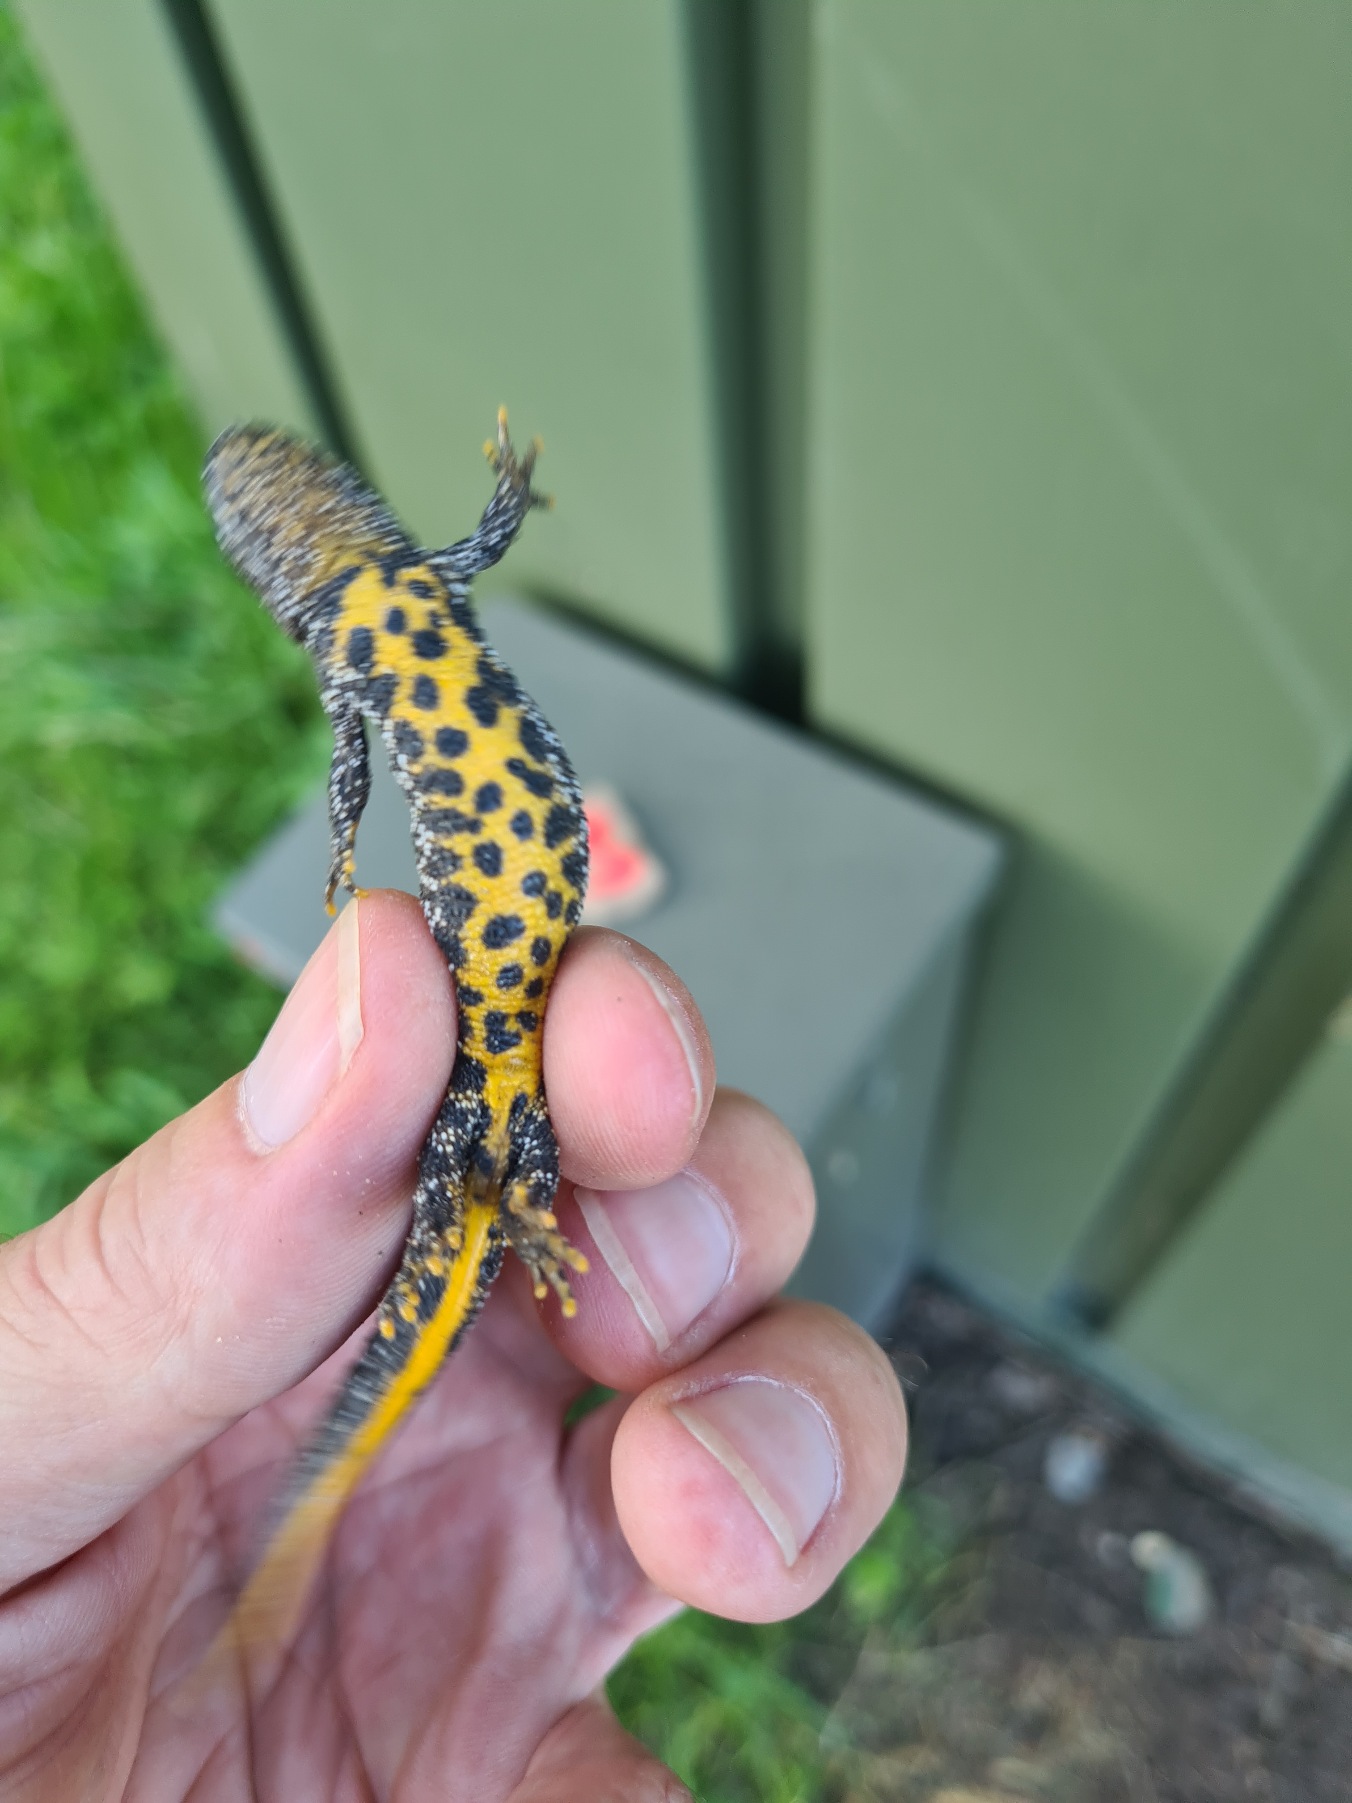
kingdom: Animalia
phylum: Chordata
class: Amphibia
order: Caudata
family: Salamandridae
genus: Triturus
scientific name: Triturus cristatus
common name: Stor vandsalamander
